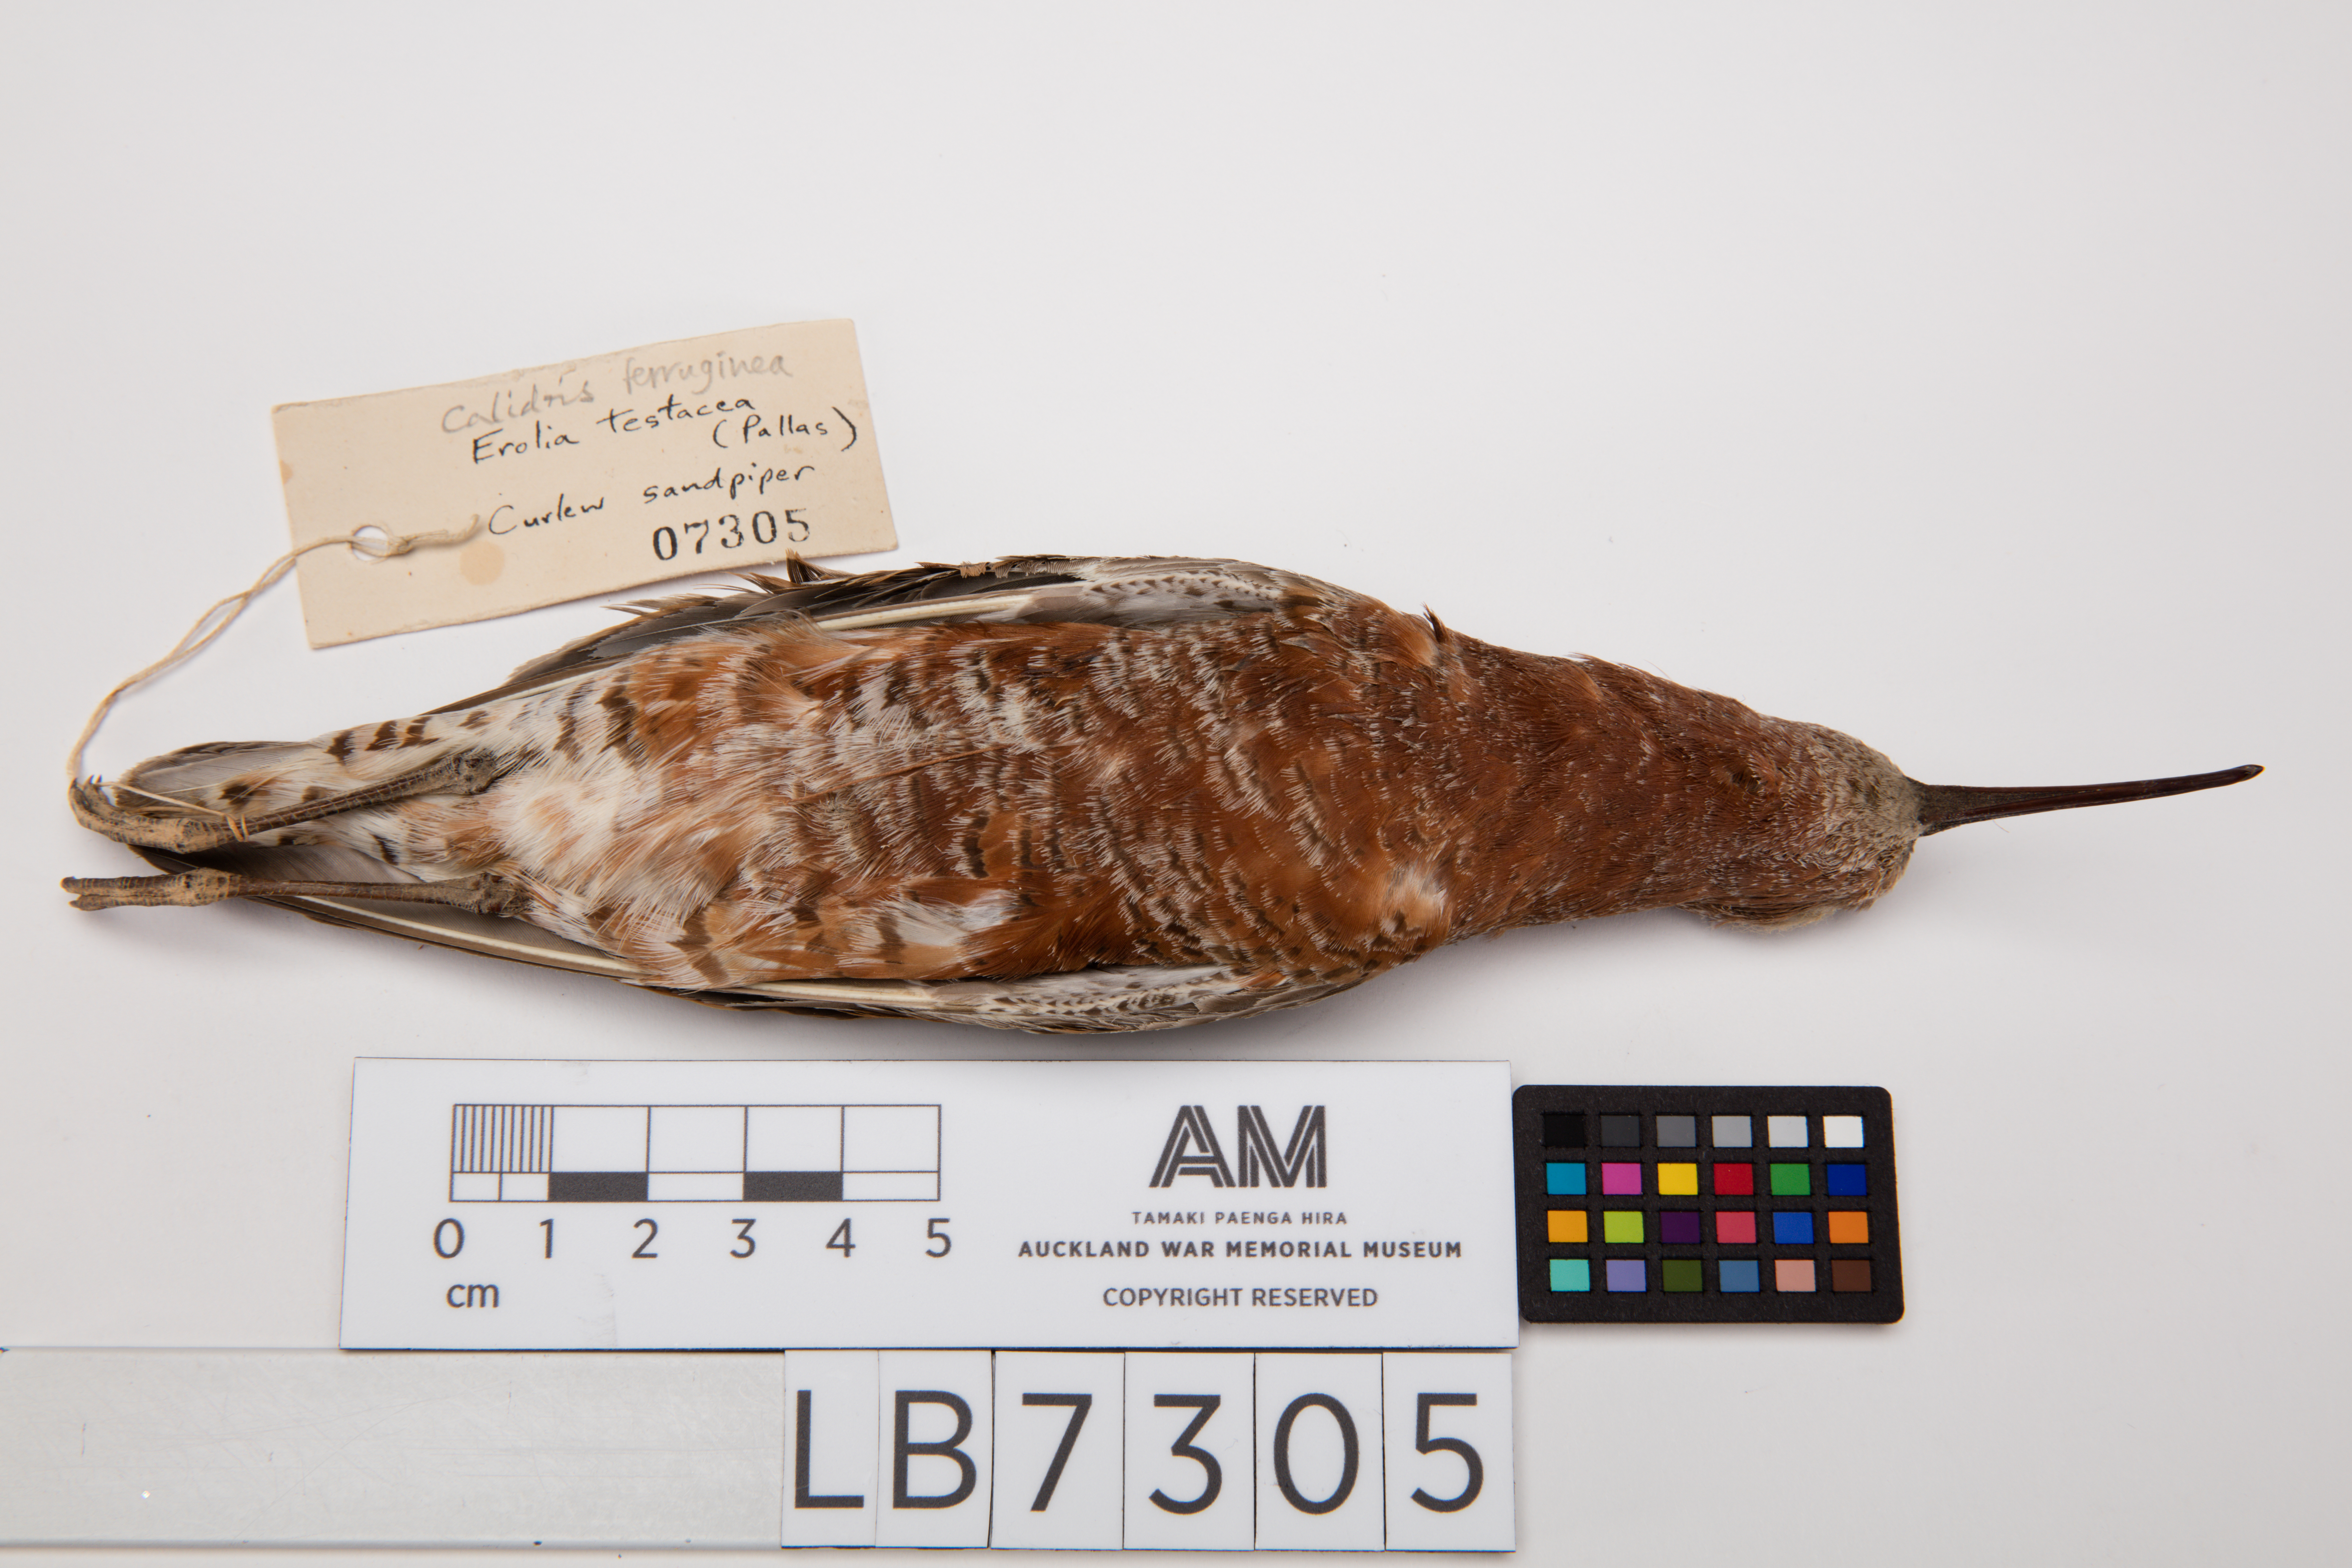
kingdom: Animalia
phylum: Chordata
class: Aves
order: Charadriiformes
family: Scolopacidae
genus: Calidris
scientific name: Calidris ferruginea
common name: Curlew sandpiper
